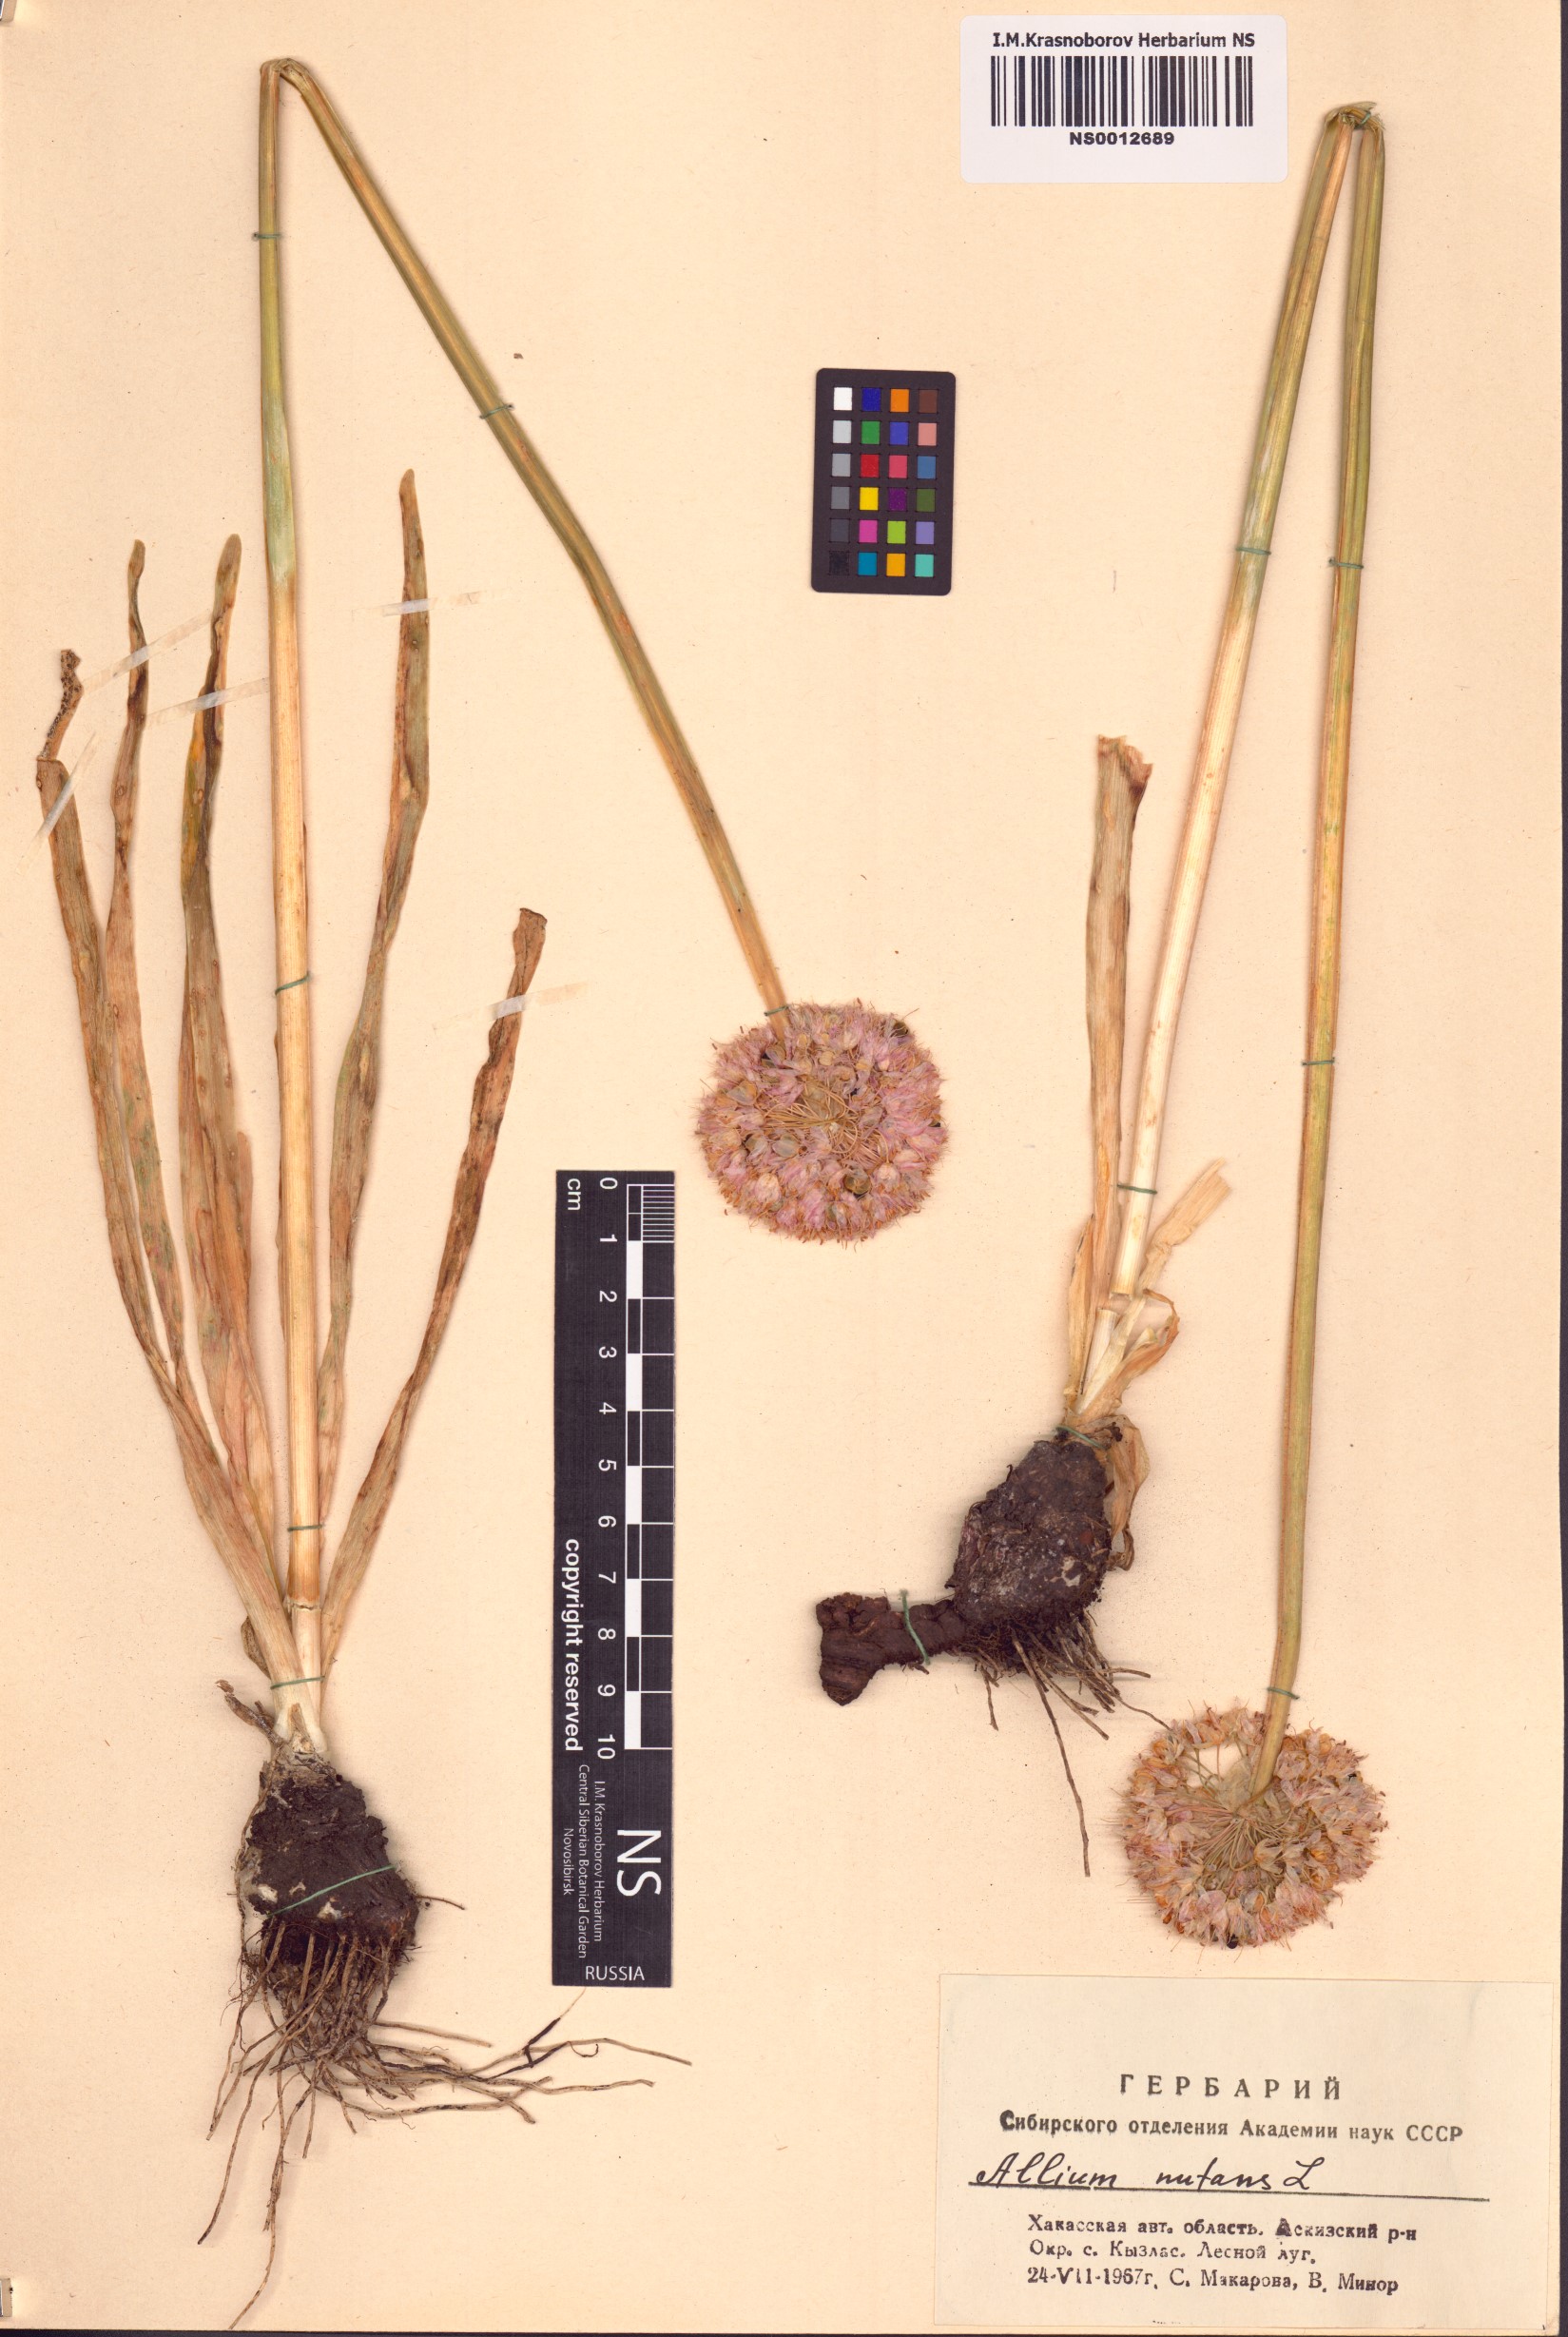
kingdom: Plantae
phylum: Tracheophyta
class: Liliopsida
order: Asparagales
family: Amaryllidaceae
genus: Allium
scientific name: Allium nutans
